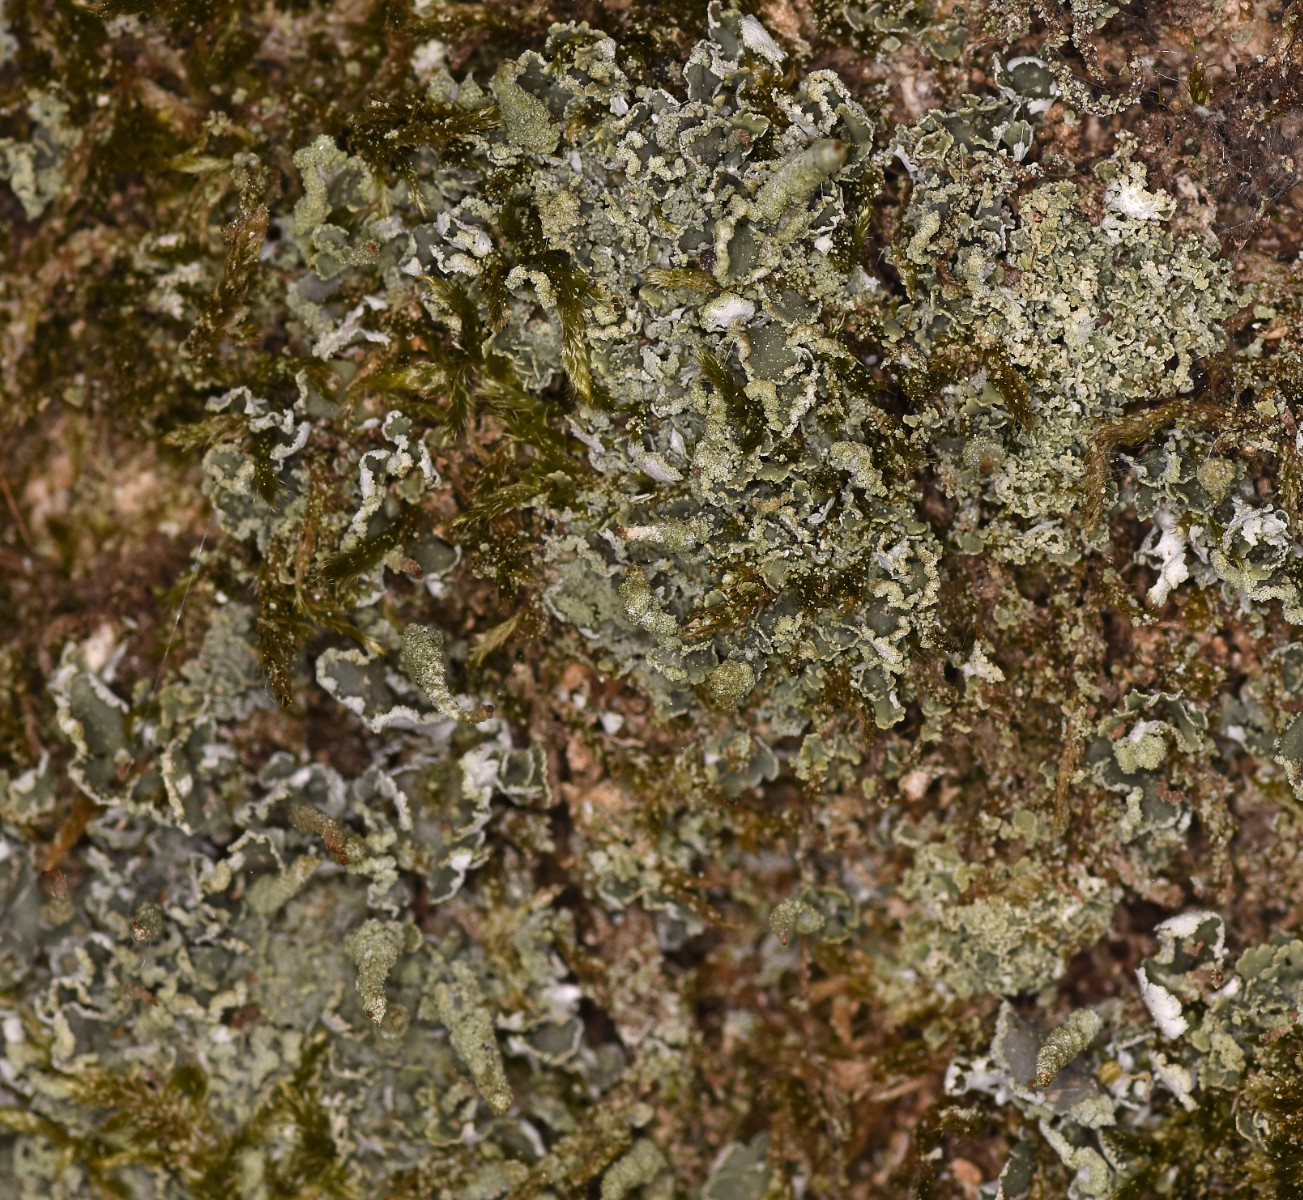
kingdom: Fungi
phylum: Ascomycota
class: Lecanoromycetes
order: Lecanorales
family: Cladoniaceae
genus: Cladonia
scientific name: Cladonia coniocraea
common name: træfods-bægerlav
